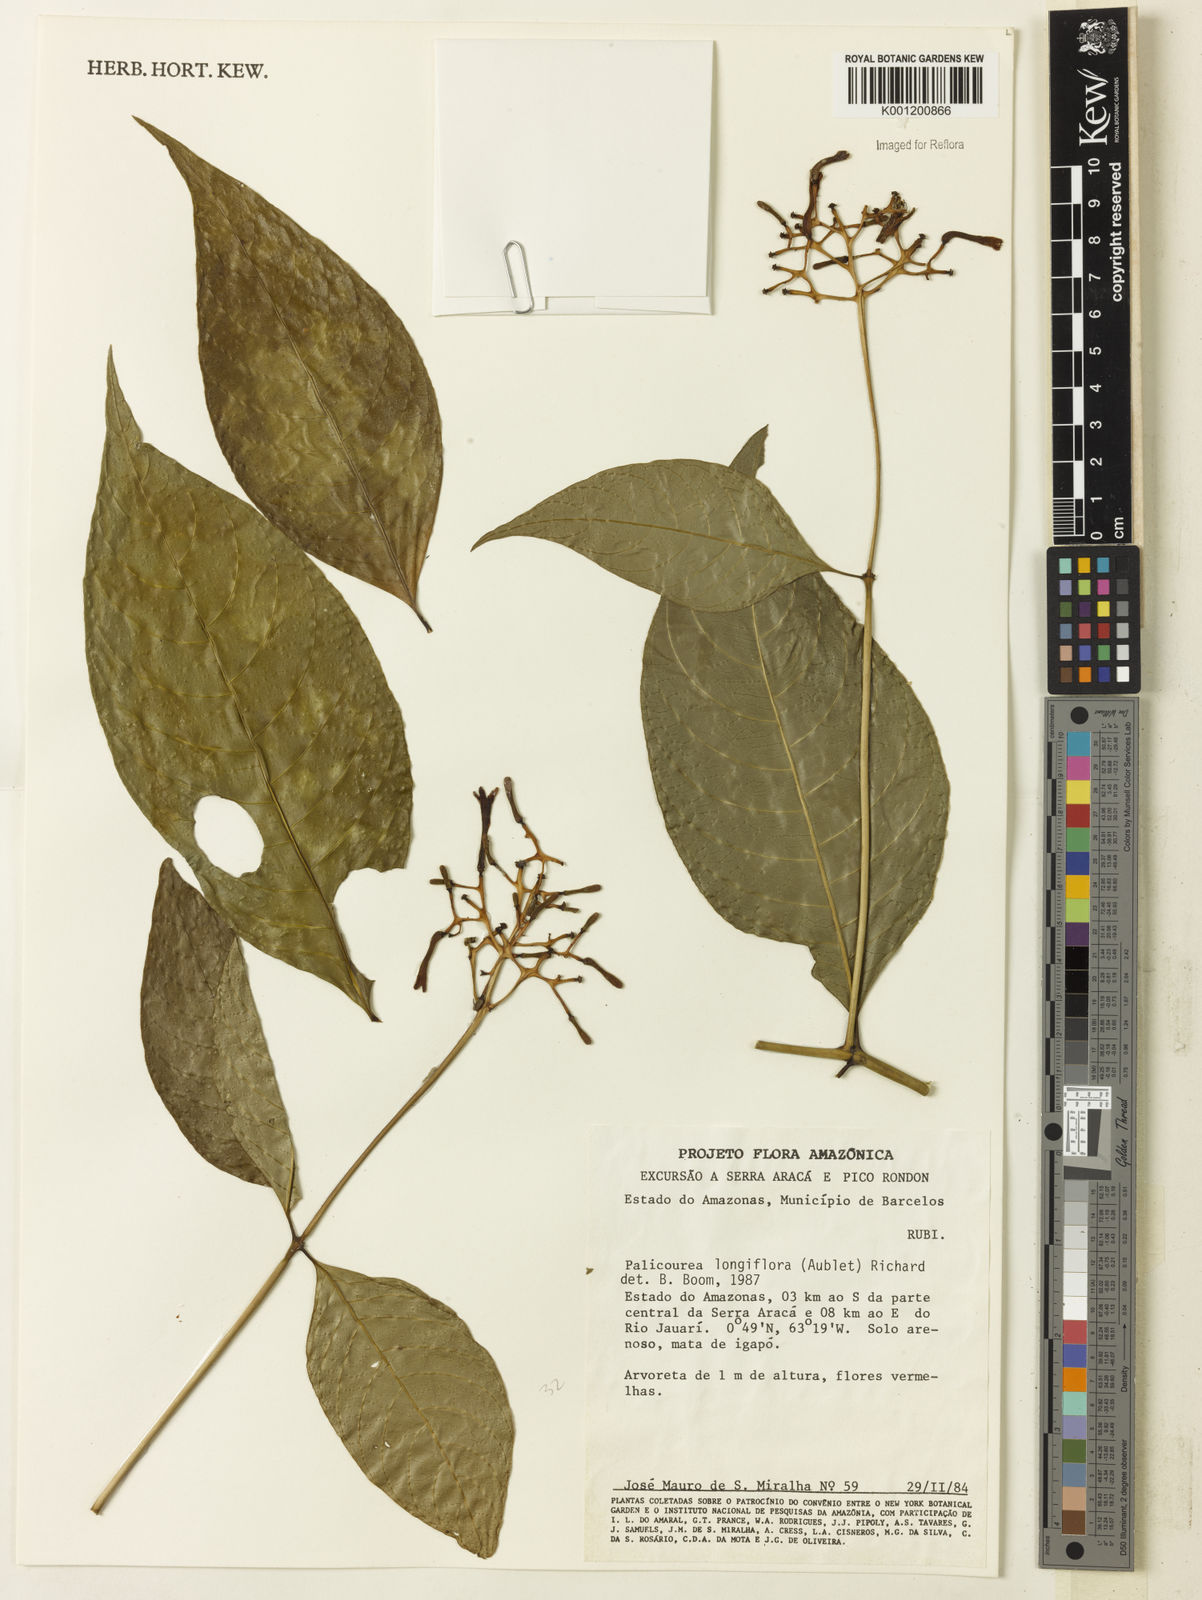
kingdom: Plantae
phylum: Tracheophyta
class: Magnoliopsida
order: Gentianales
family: Rubiaceae
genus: Palicourea
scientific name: Palicourea longiflora
